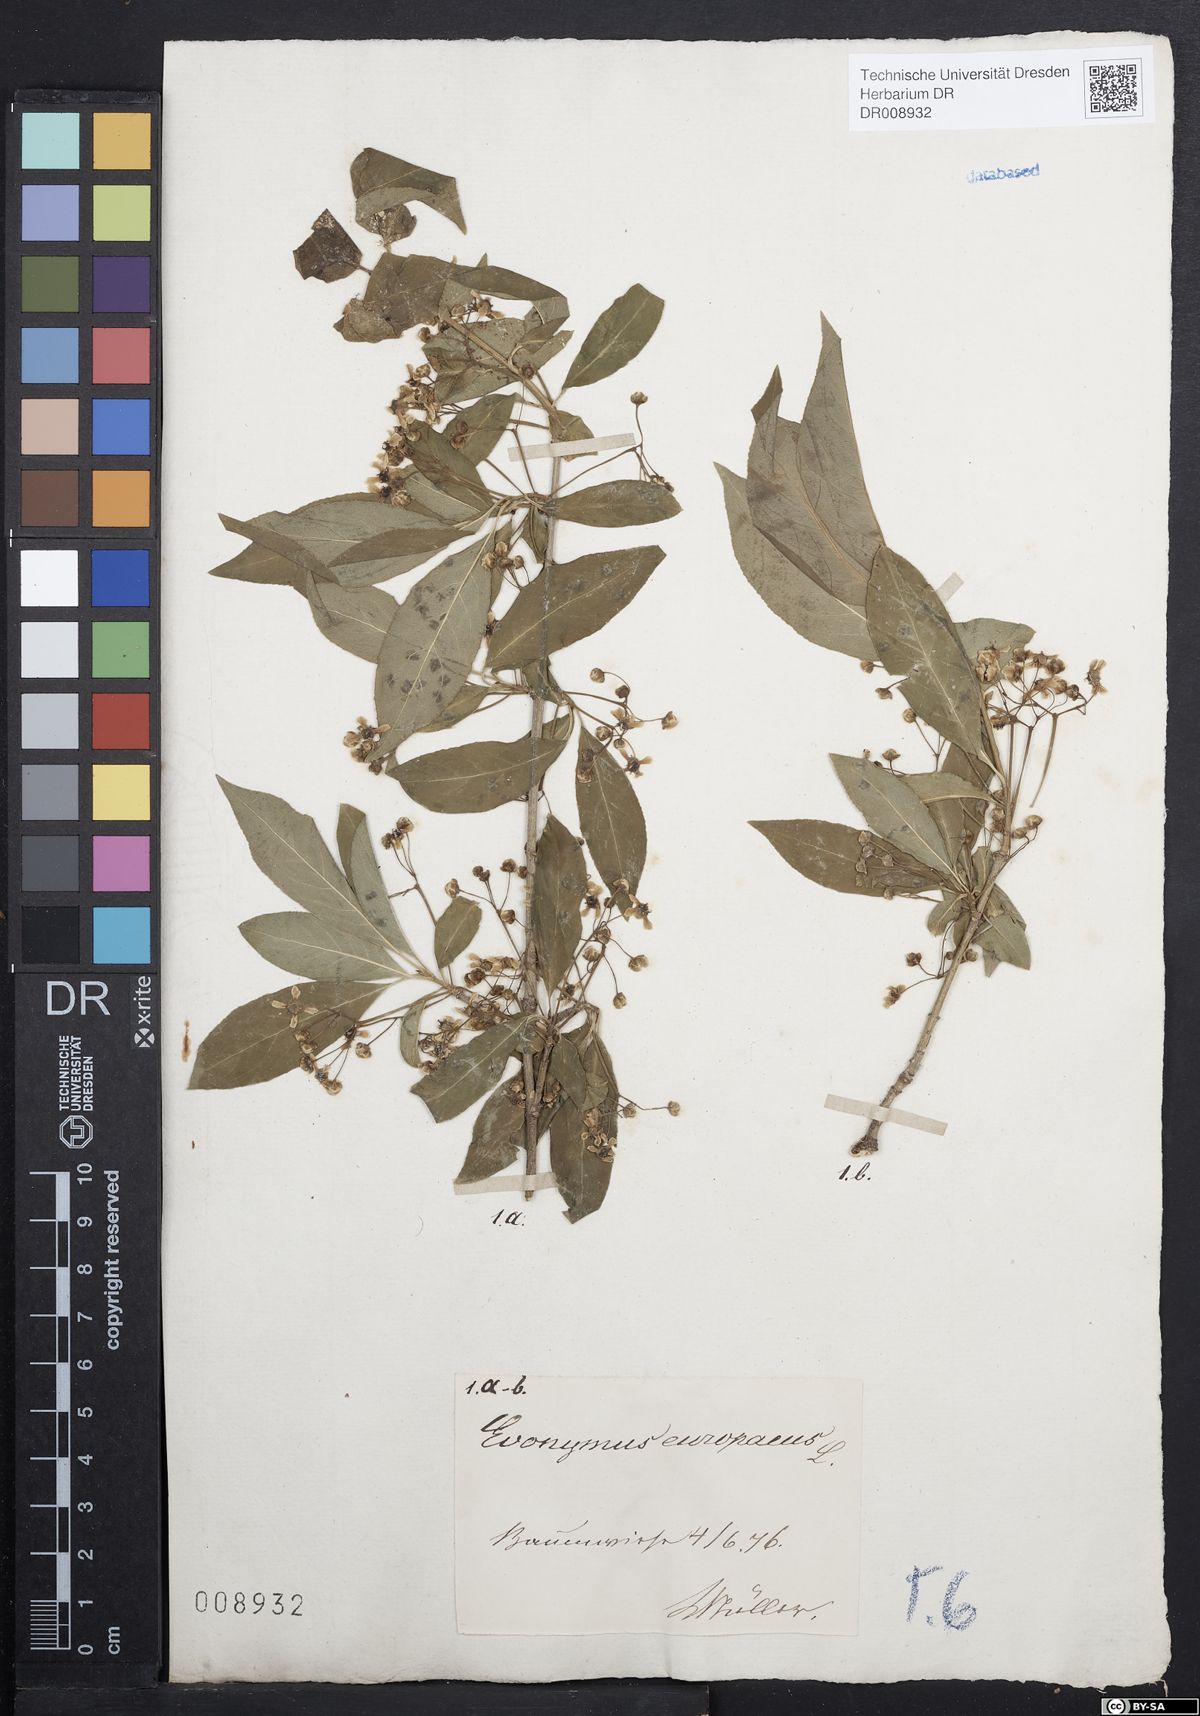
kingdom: Plantae
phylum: Tracheophyta
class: Magnoliopsida
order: Celastrales
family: Celastraceae
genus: Euonymus
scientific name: Euonymus europaeus
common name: Spindle
